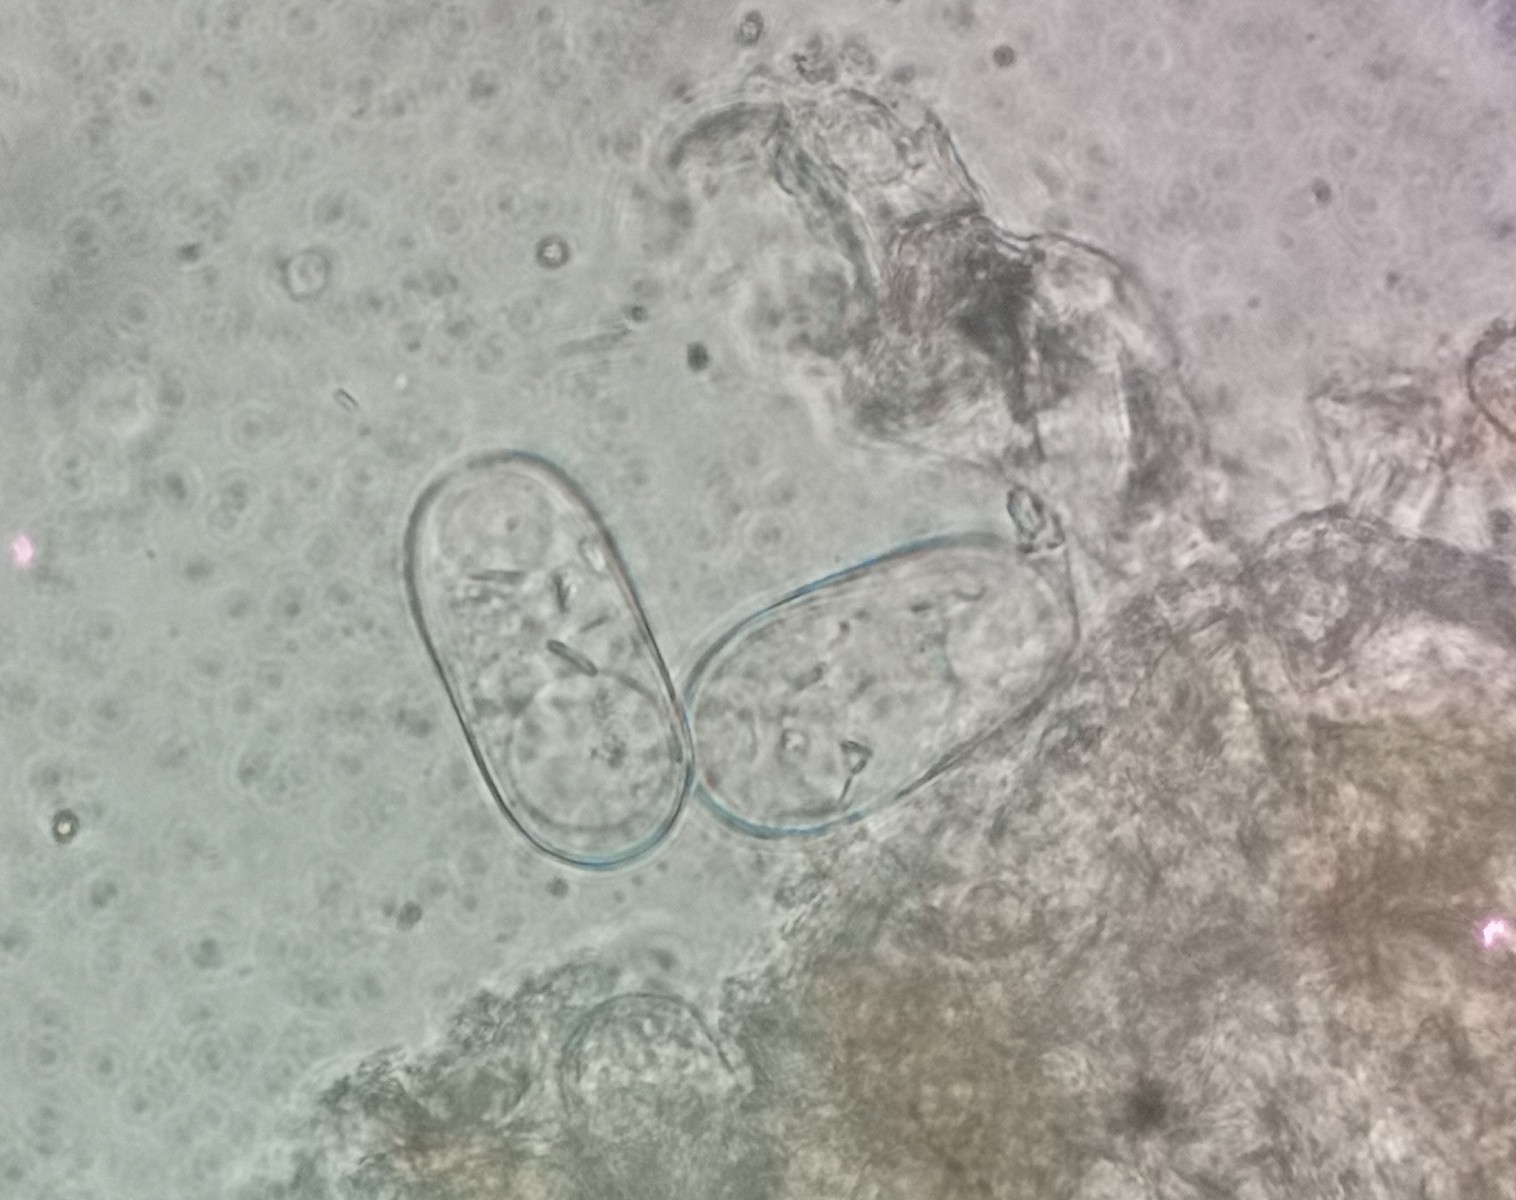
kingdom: Fungi
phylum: Ascomycota
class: Leotiomycetes
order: Helotiales
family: Erysiphaceae
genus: Podosphaera
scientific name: Podosphaera lini
